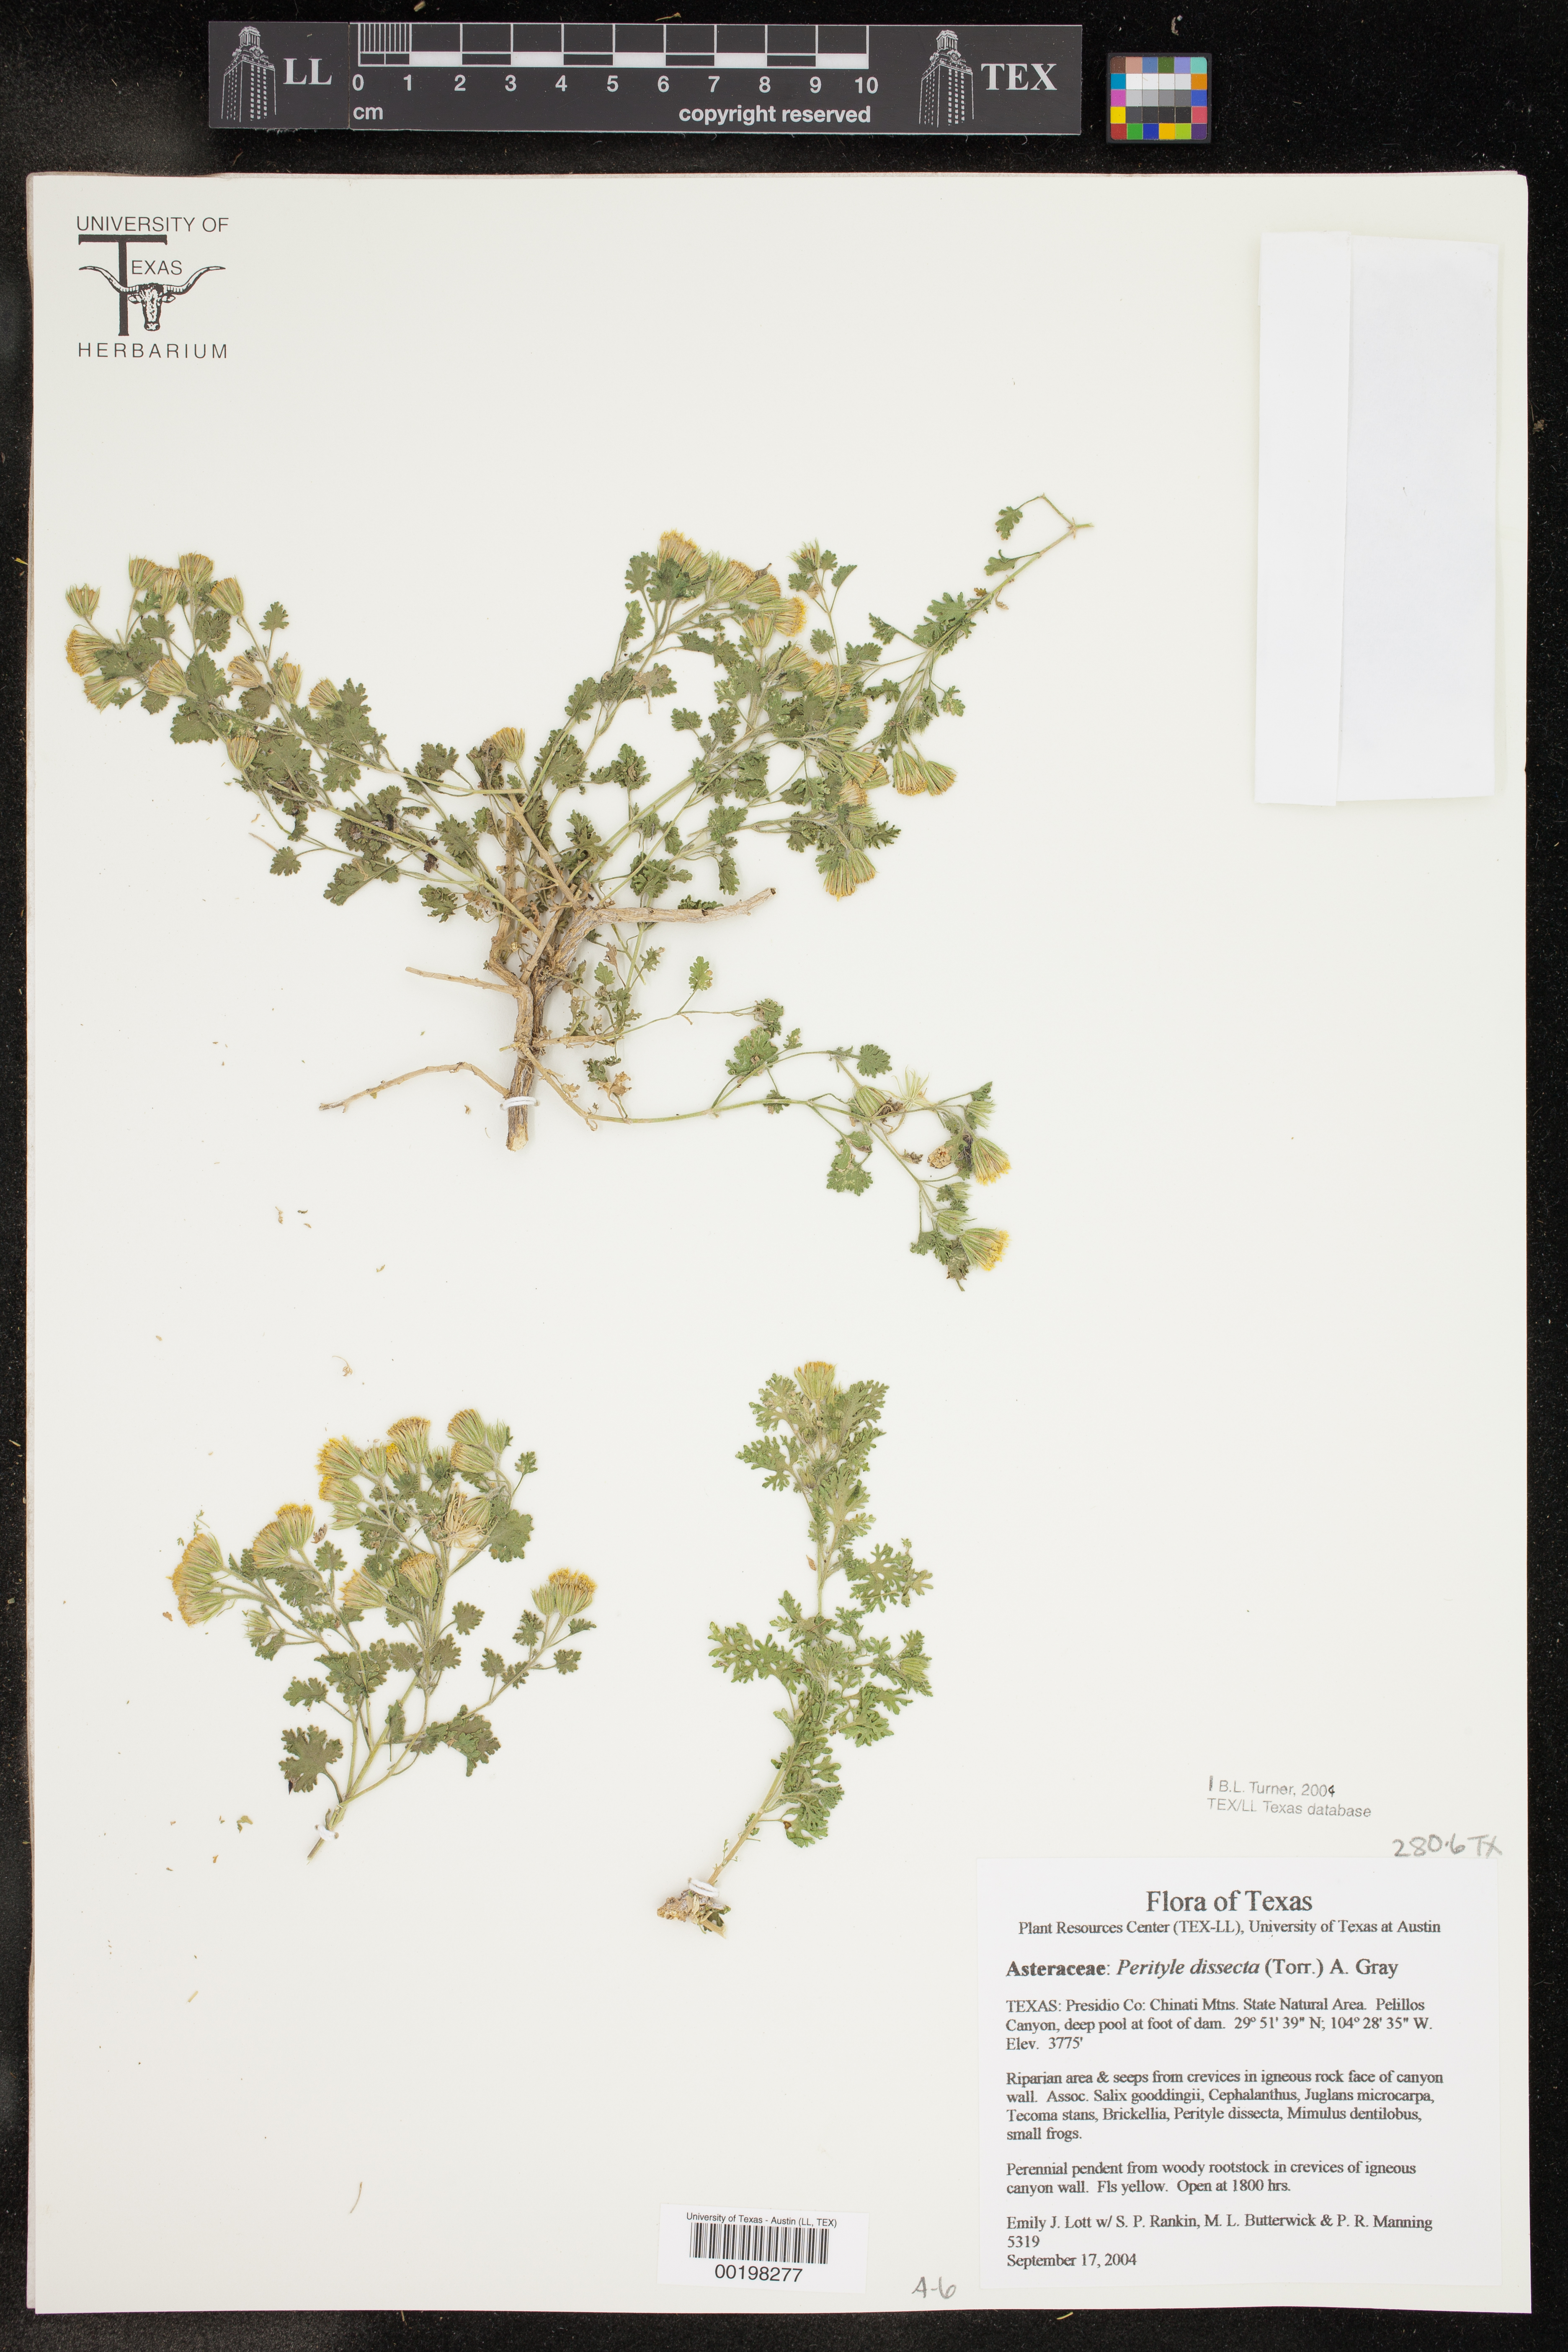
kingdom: Plantae
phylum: Tracheophyta
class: Magnoliopsida
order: Asterales
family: Asteraceae
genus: Laphamia
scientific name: Laphamia dissecta
